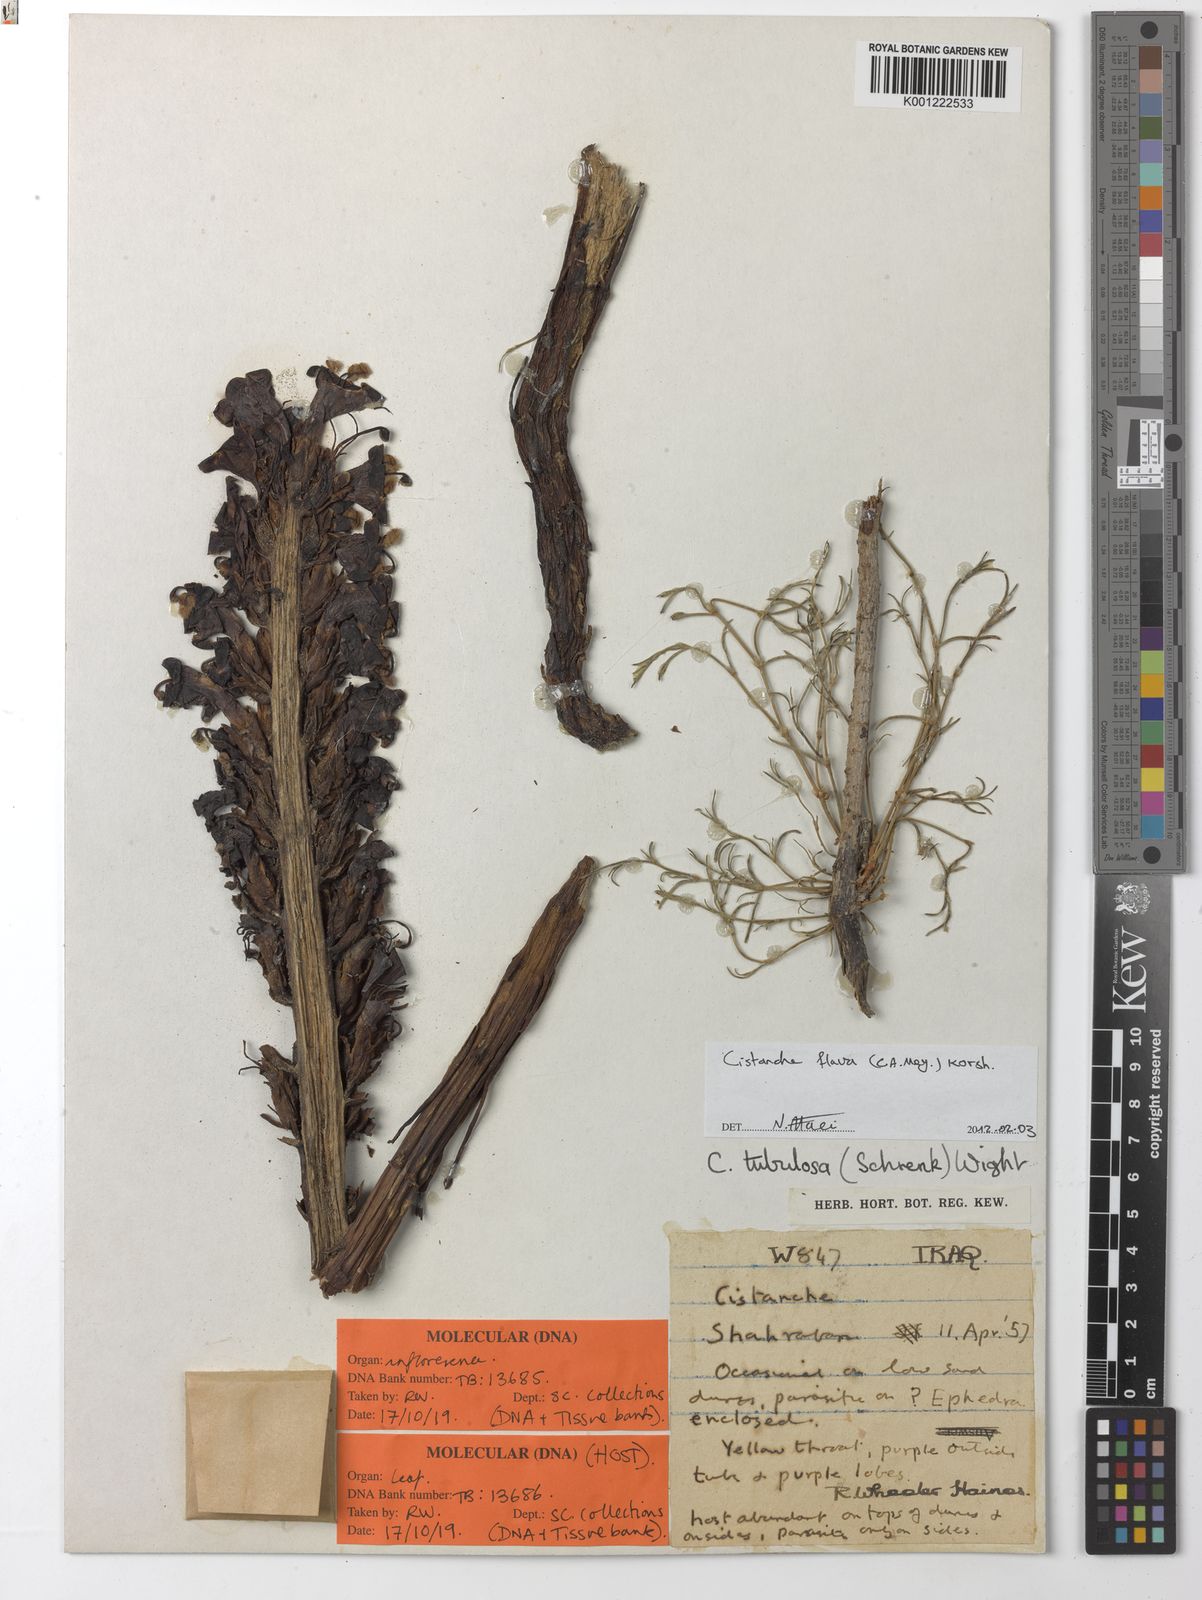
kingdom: Plantae
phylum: Tracheophyta
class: Magnoliopsida
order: Lamiales
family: Orobanchaceae
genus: Cistanche
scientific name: Cistanche flava
